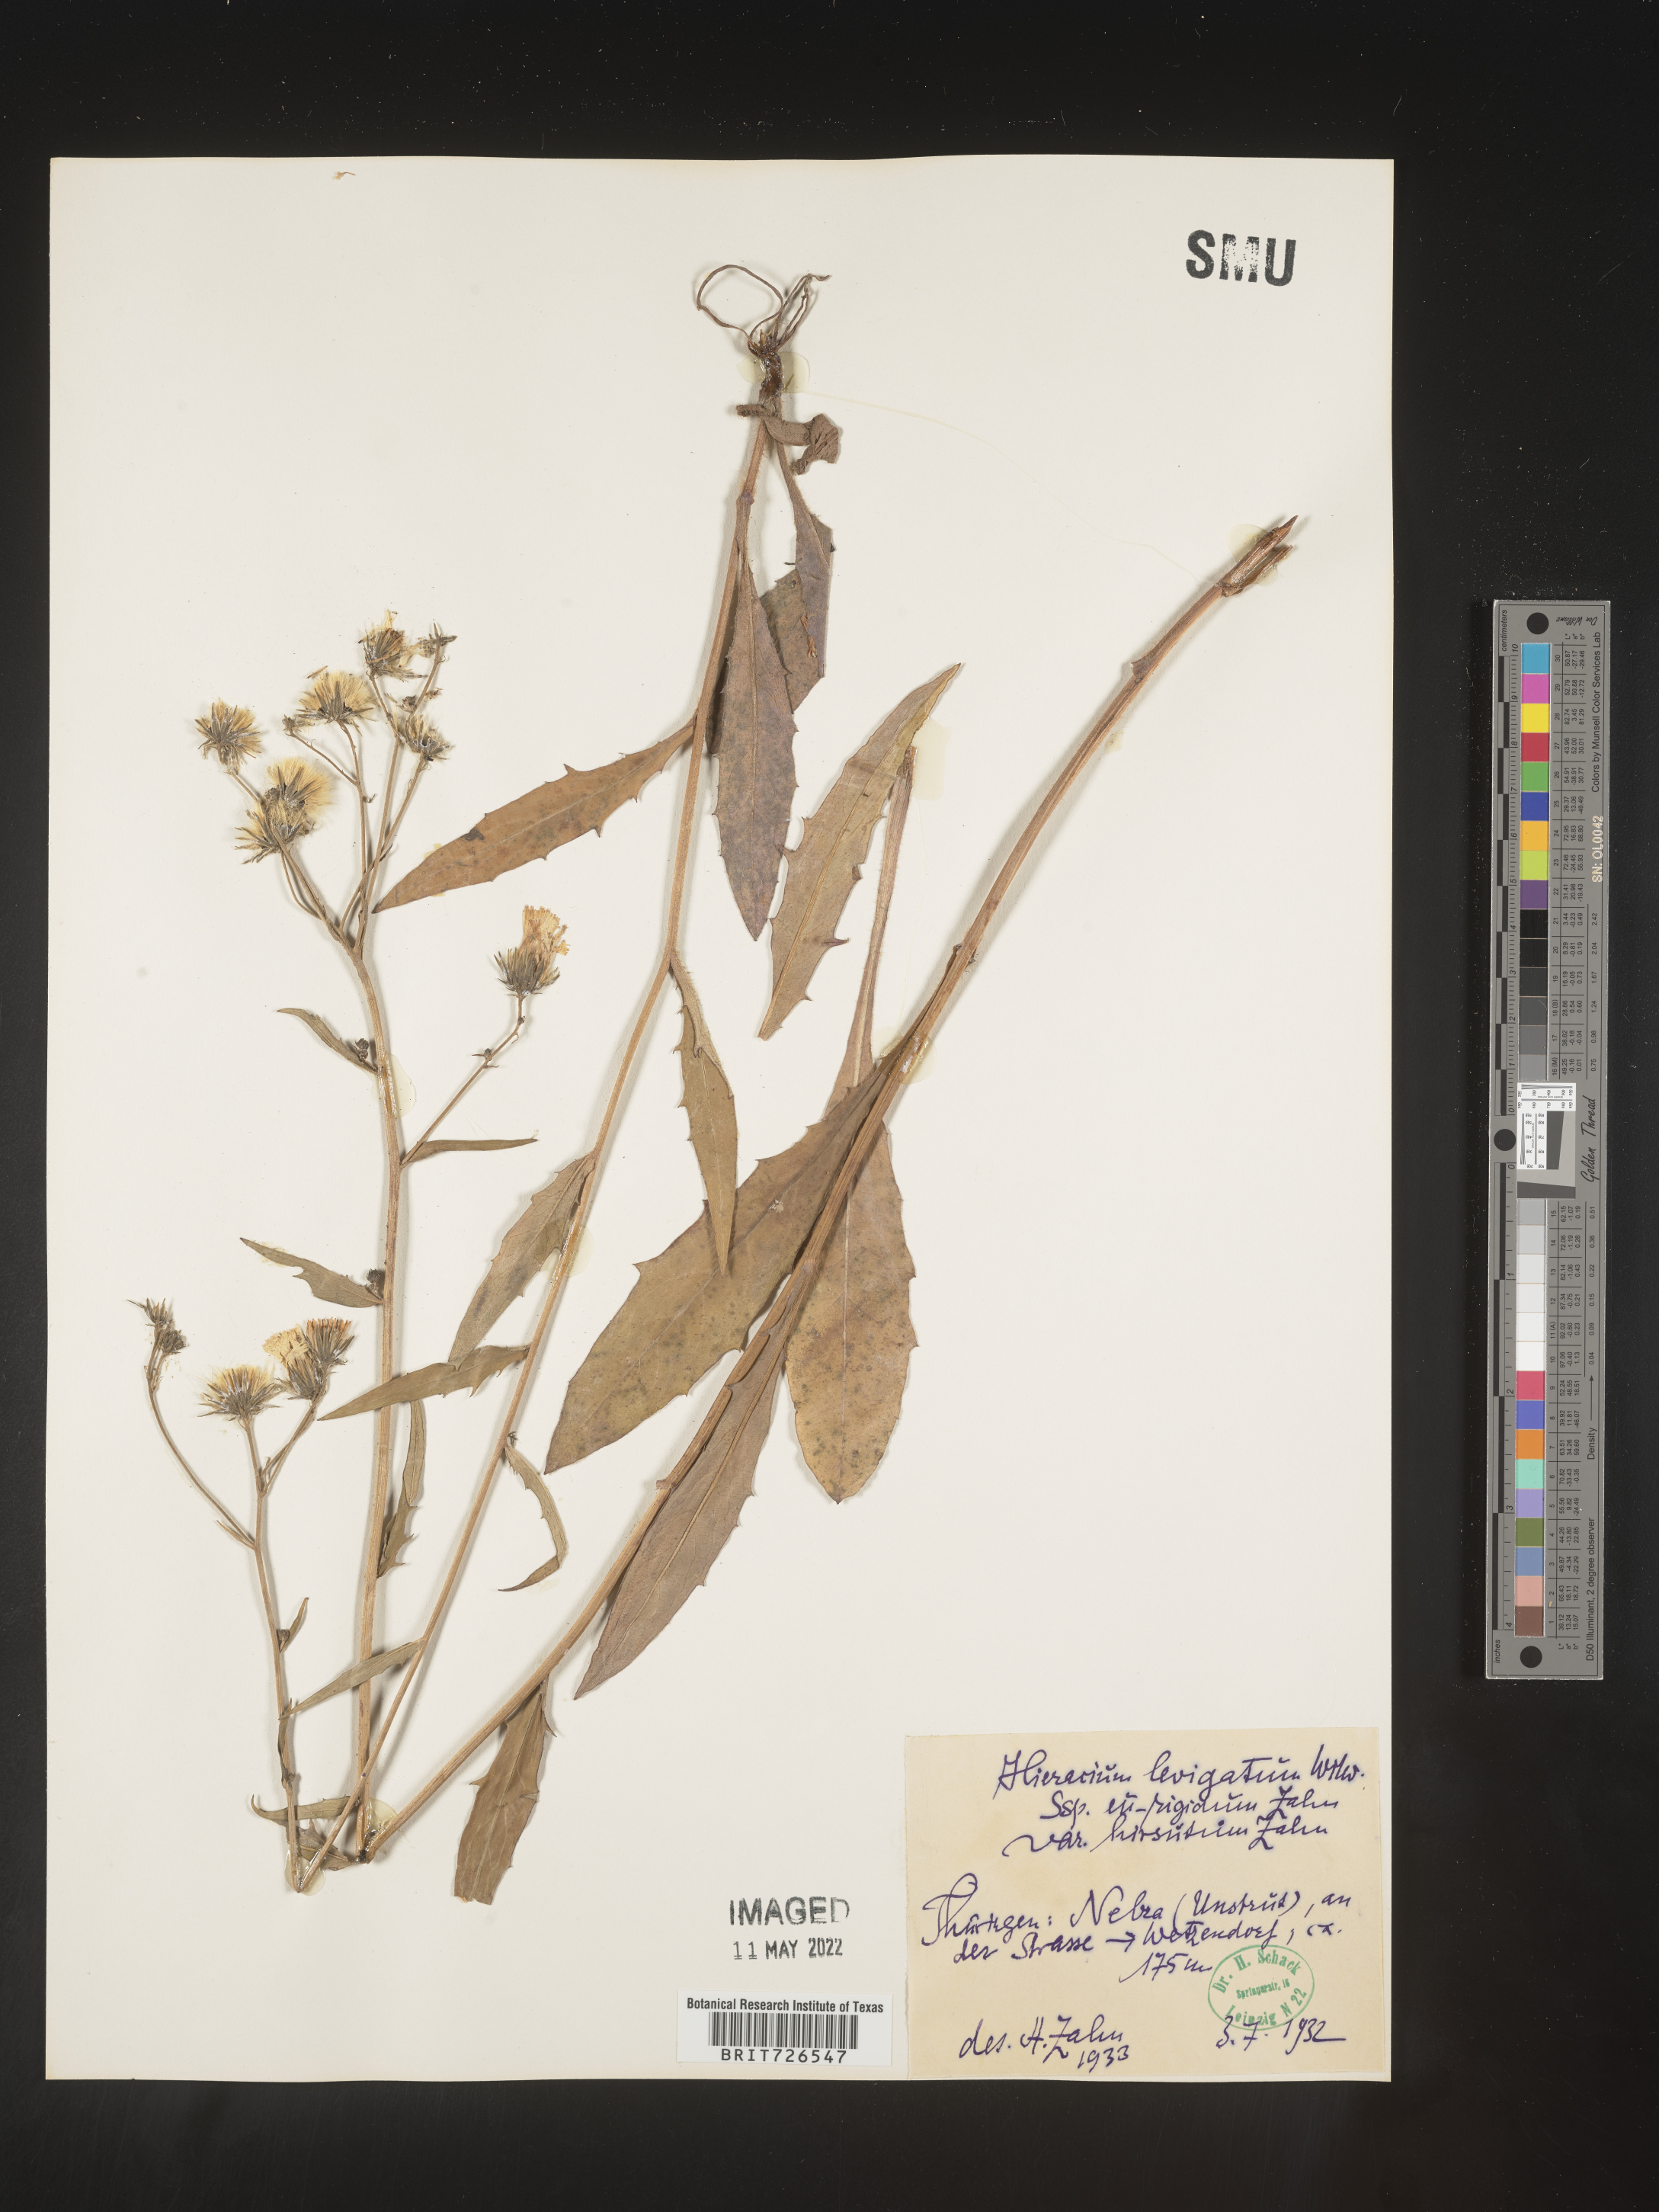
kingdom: Plantae
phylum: Tracheophyta
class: Magnoliopsida
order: Asterales
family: Asteraceae
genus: Hieracium
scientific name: Hieracium
